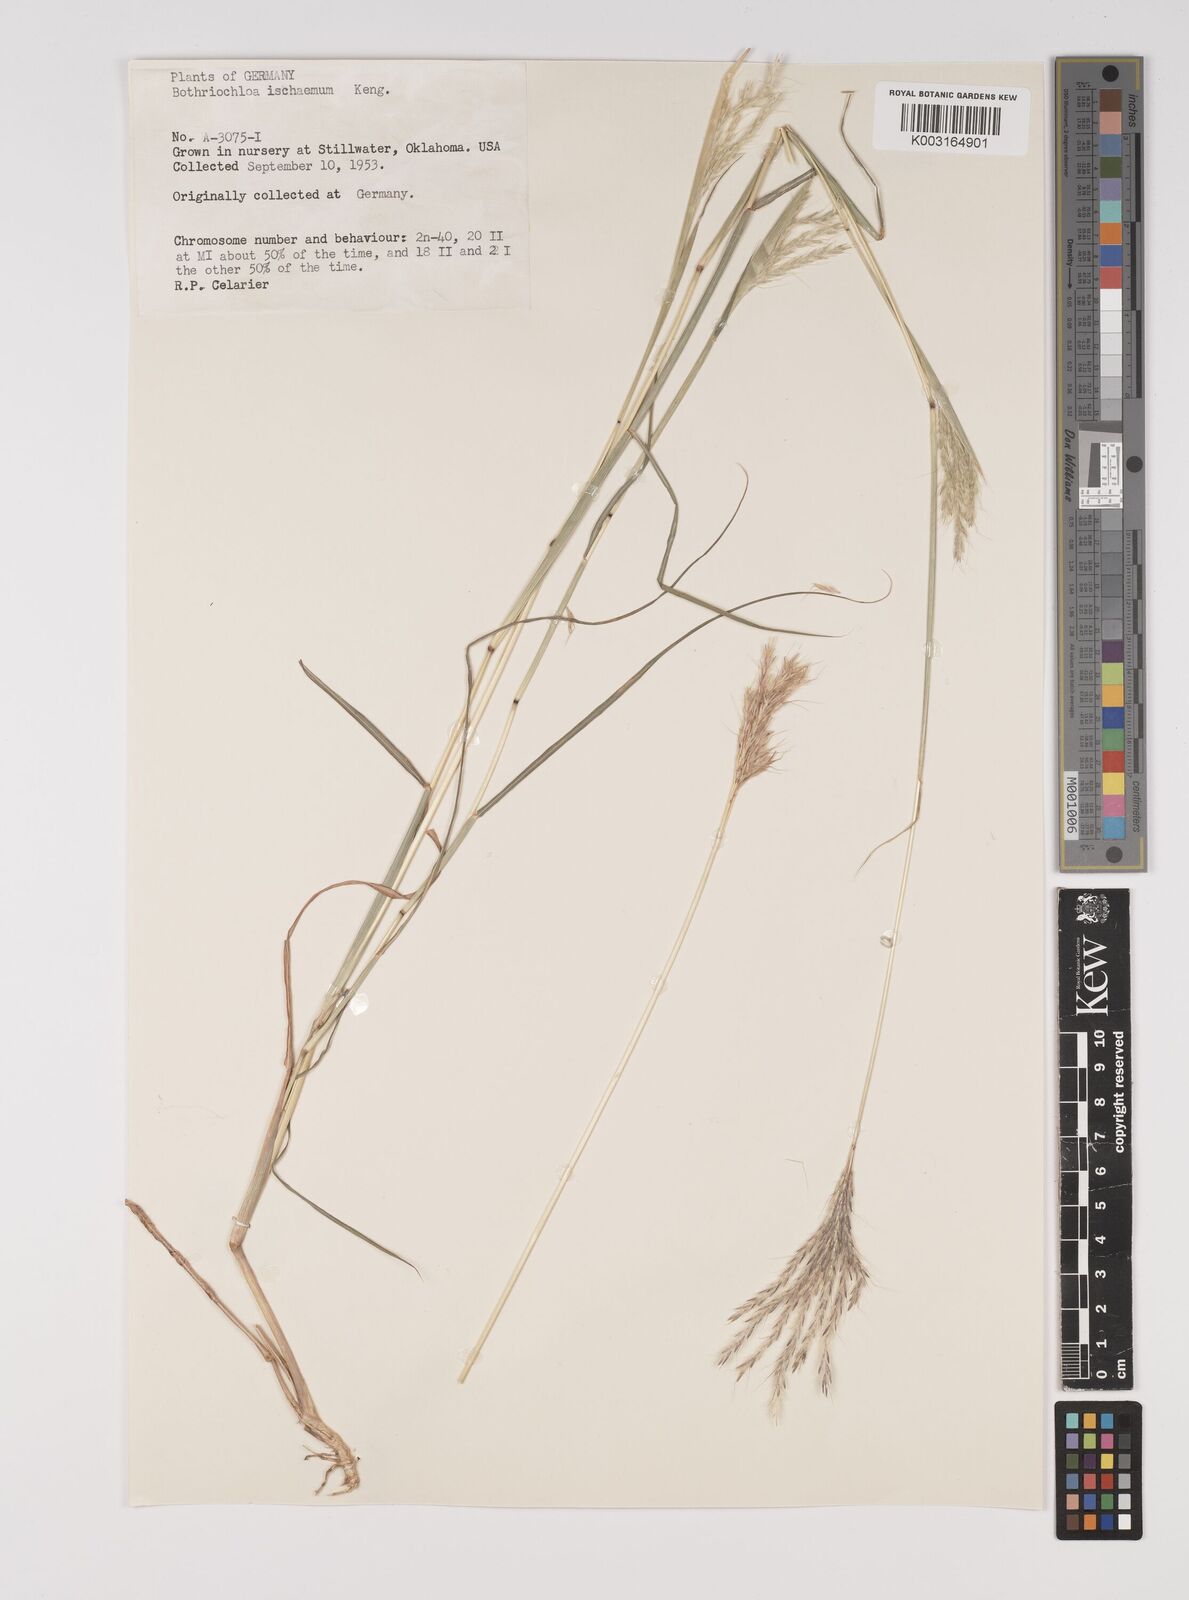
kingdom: Plantae
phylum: Tracheophyta
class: Liliopsida
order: Poales
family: Poaceae
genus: Bothriochloa
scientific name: Bothriochloa ischaemum
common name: Yellow bluestem
